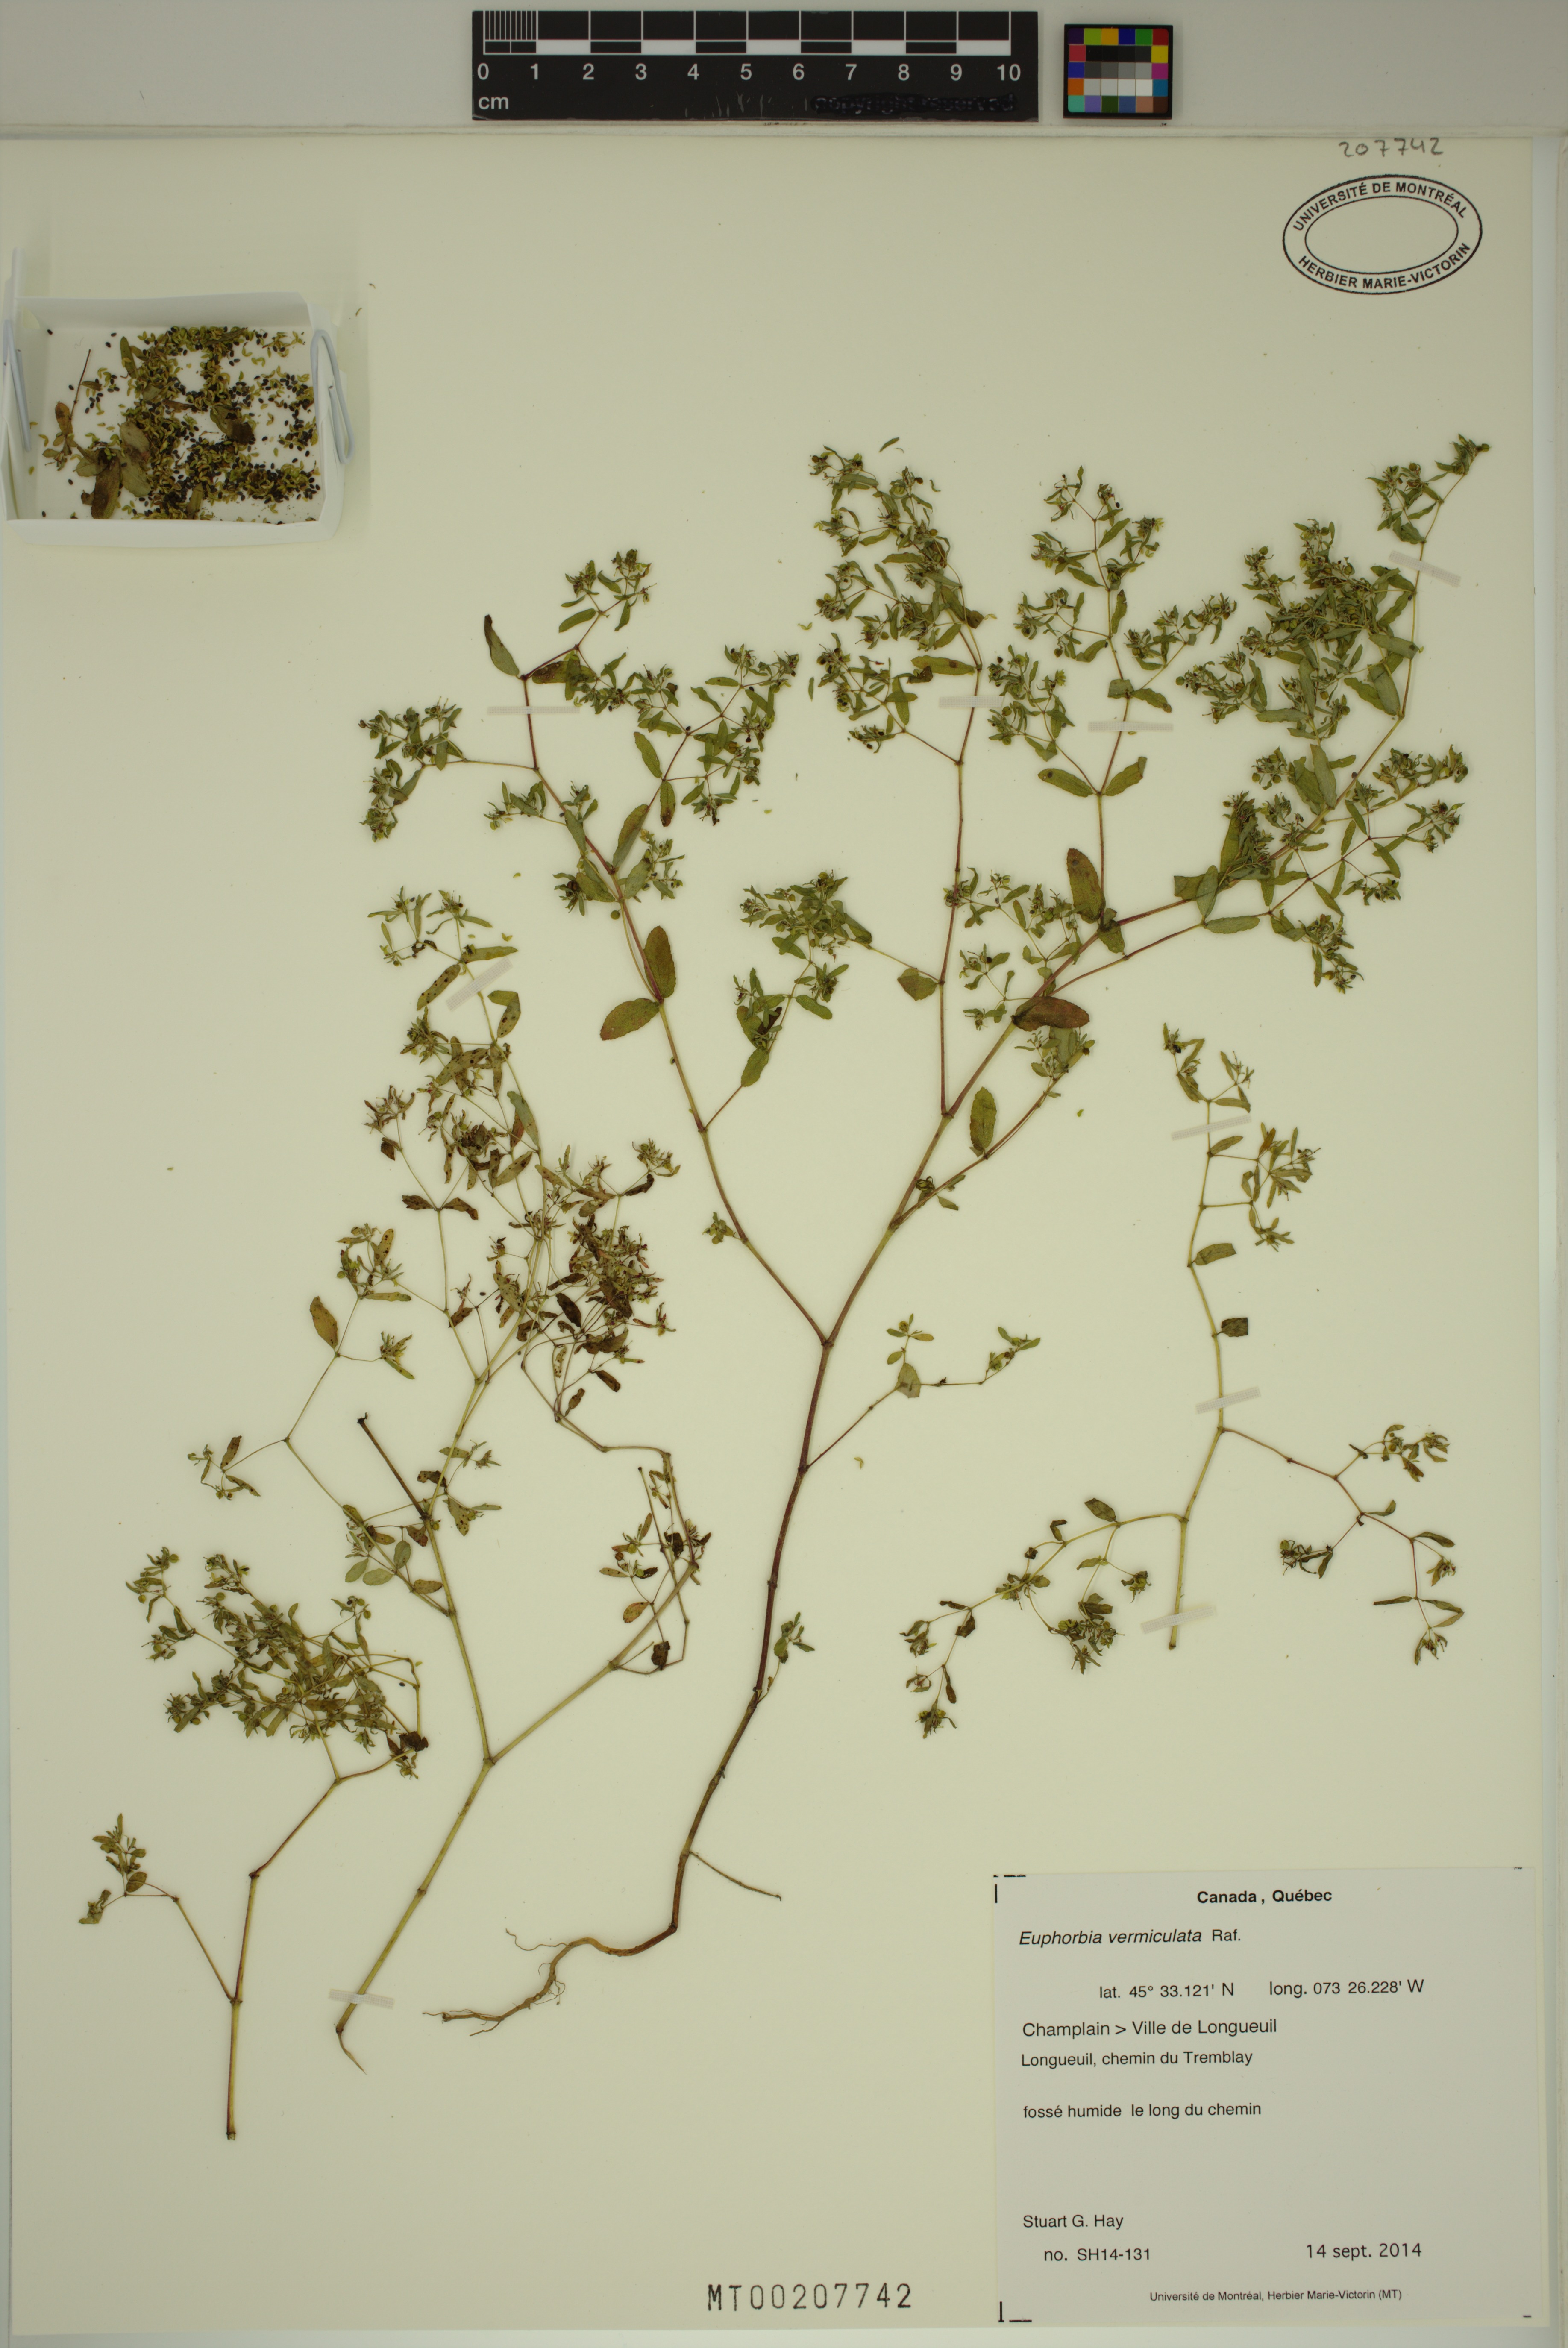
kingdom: Plantae
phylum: Tracheophyta
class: Magnoliopsida
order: Malpighiales
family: Euphorbiaceae
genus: Euphorbia
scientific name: Euphorbia vermiculata
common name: Hairy spurge
